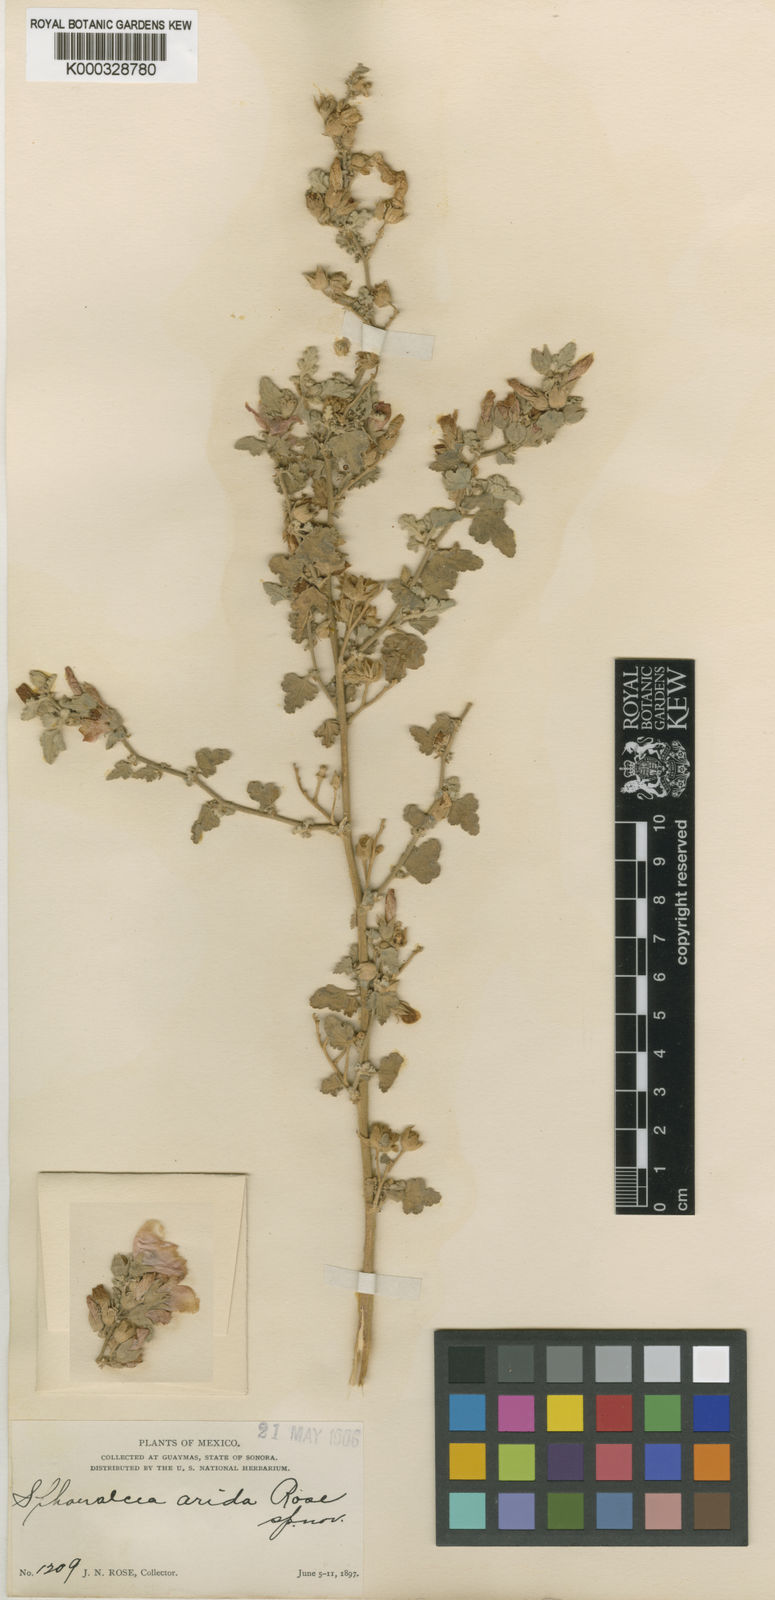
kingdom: Plantae
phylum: Tracheophyta
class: Magnoliopsida
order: Malvales
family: Malvaceae
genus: Sphaeralcea
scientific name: Sphaeralcea emoryi
